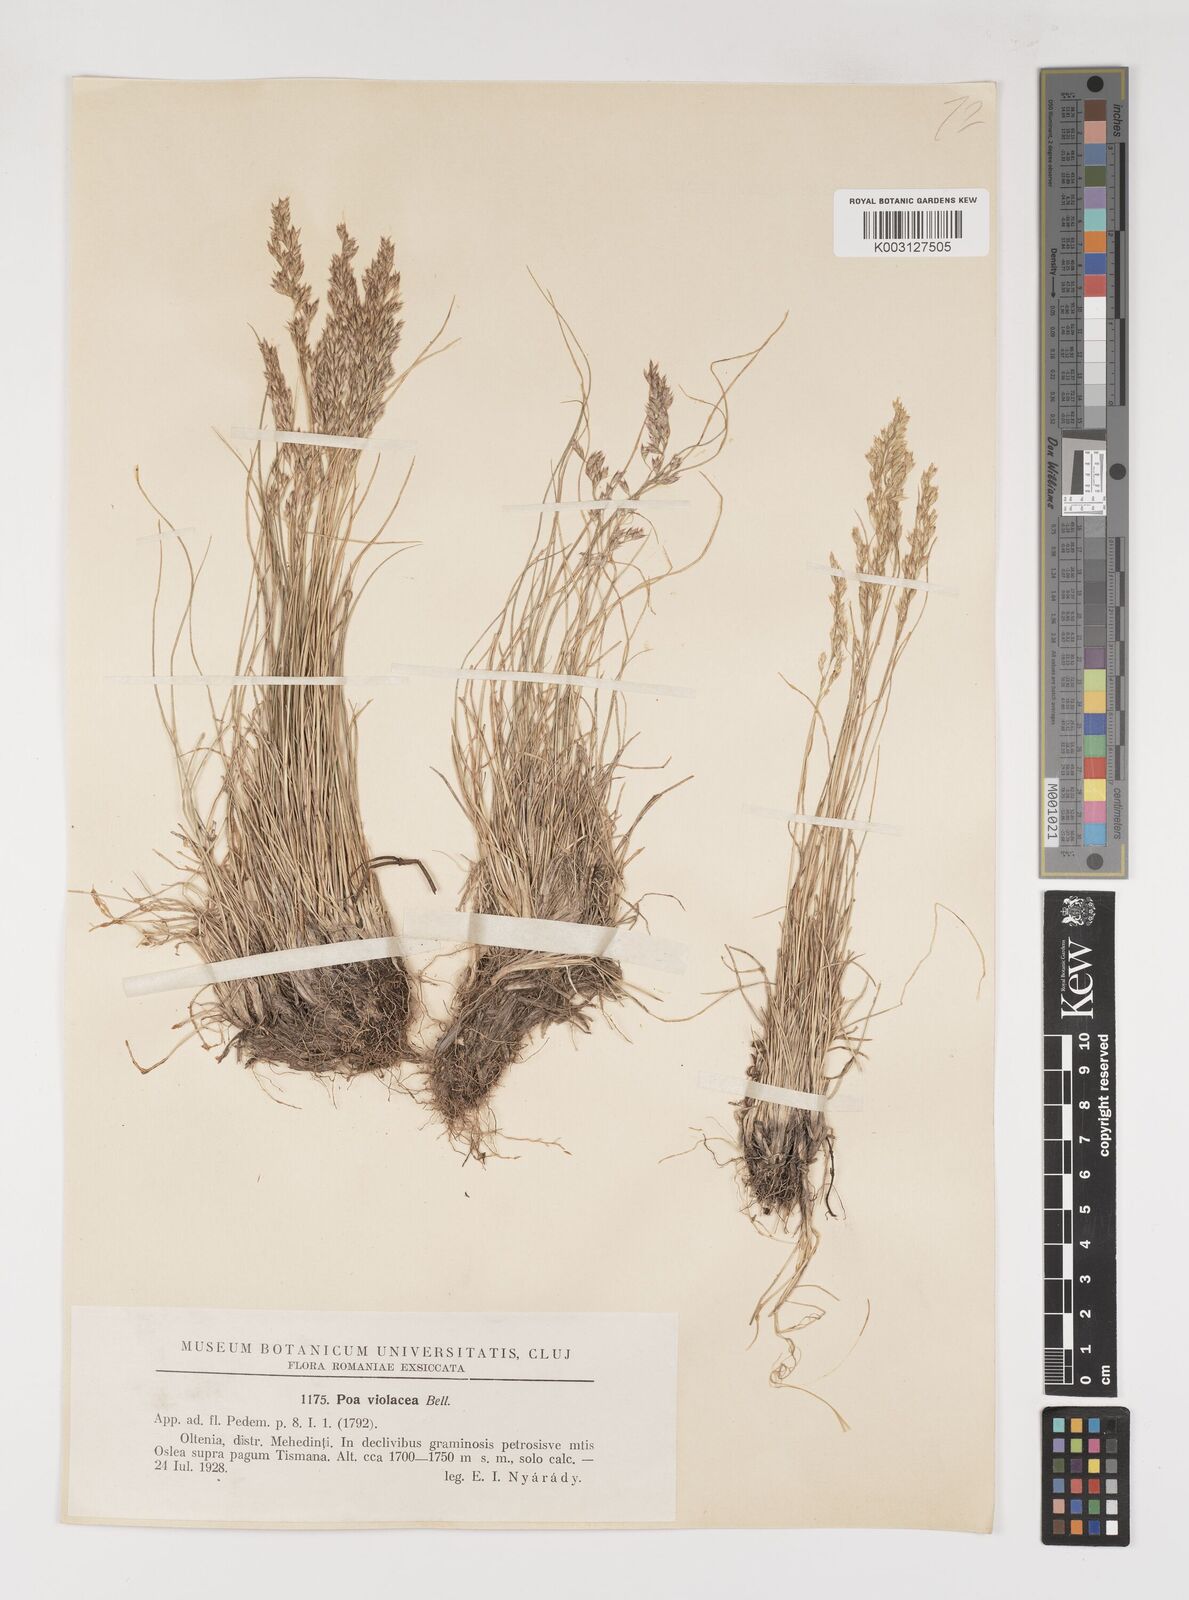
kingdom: Plantae
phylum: Tracheophyta
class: Liliopsida
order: Poales
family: Poaceae
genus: Bellardiochloa
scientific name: Bellardiochloa variegata
